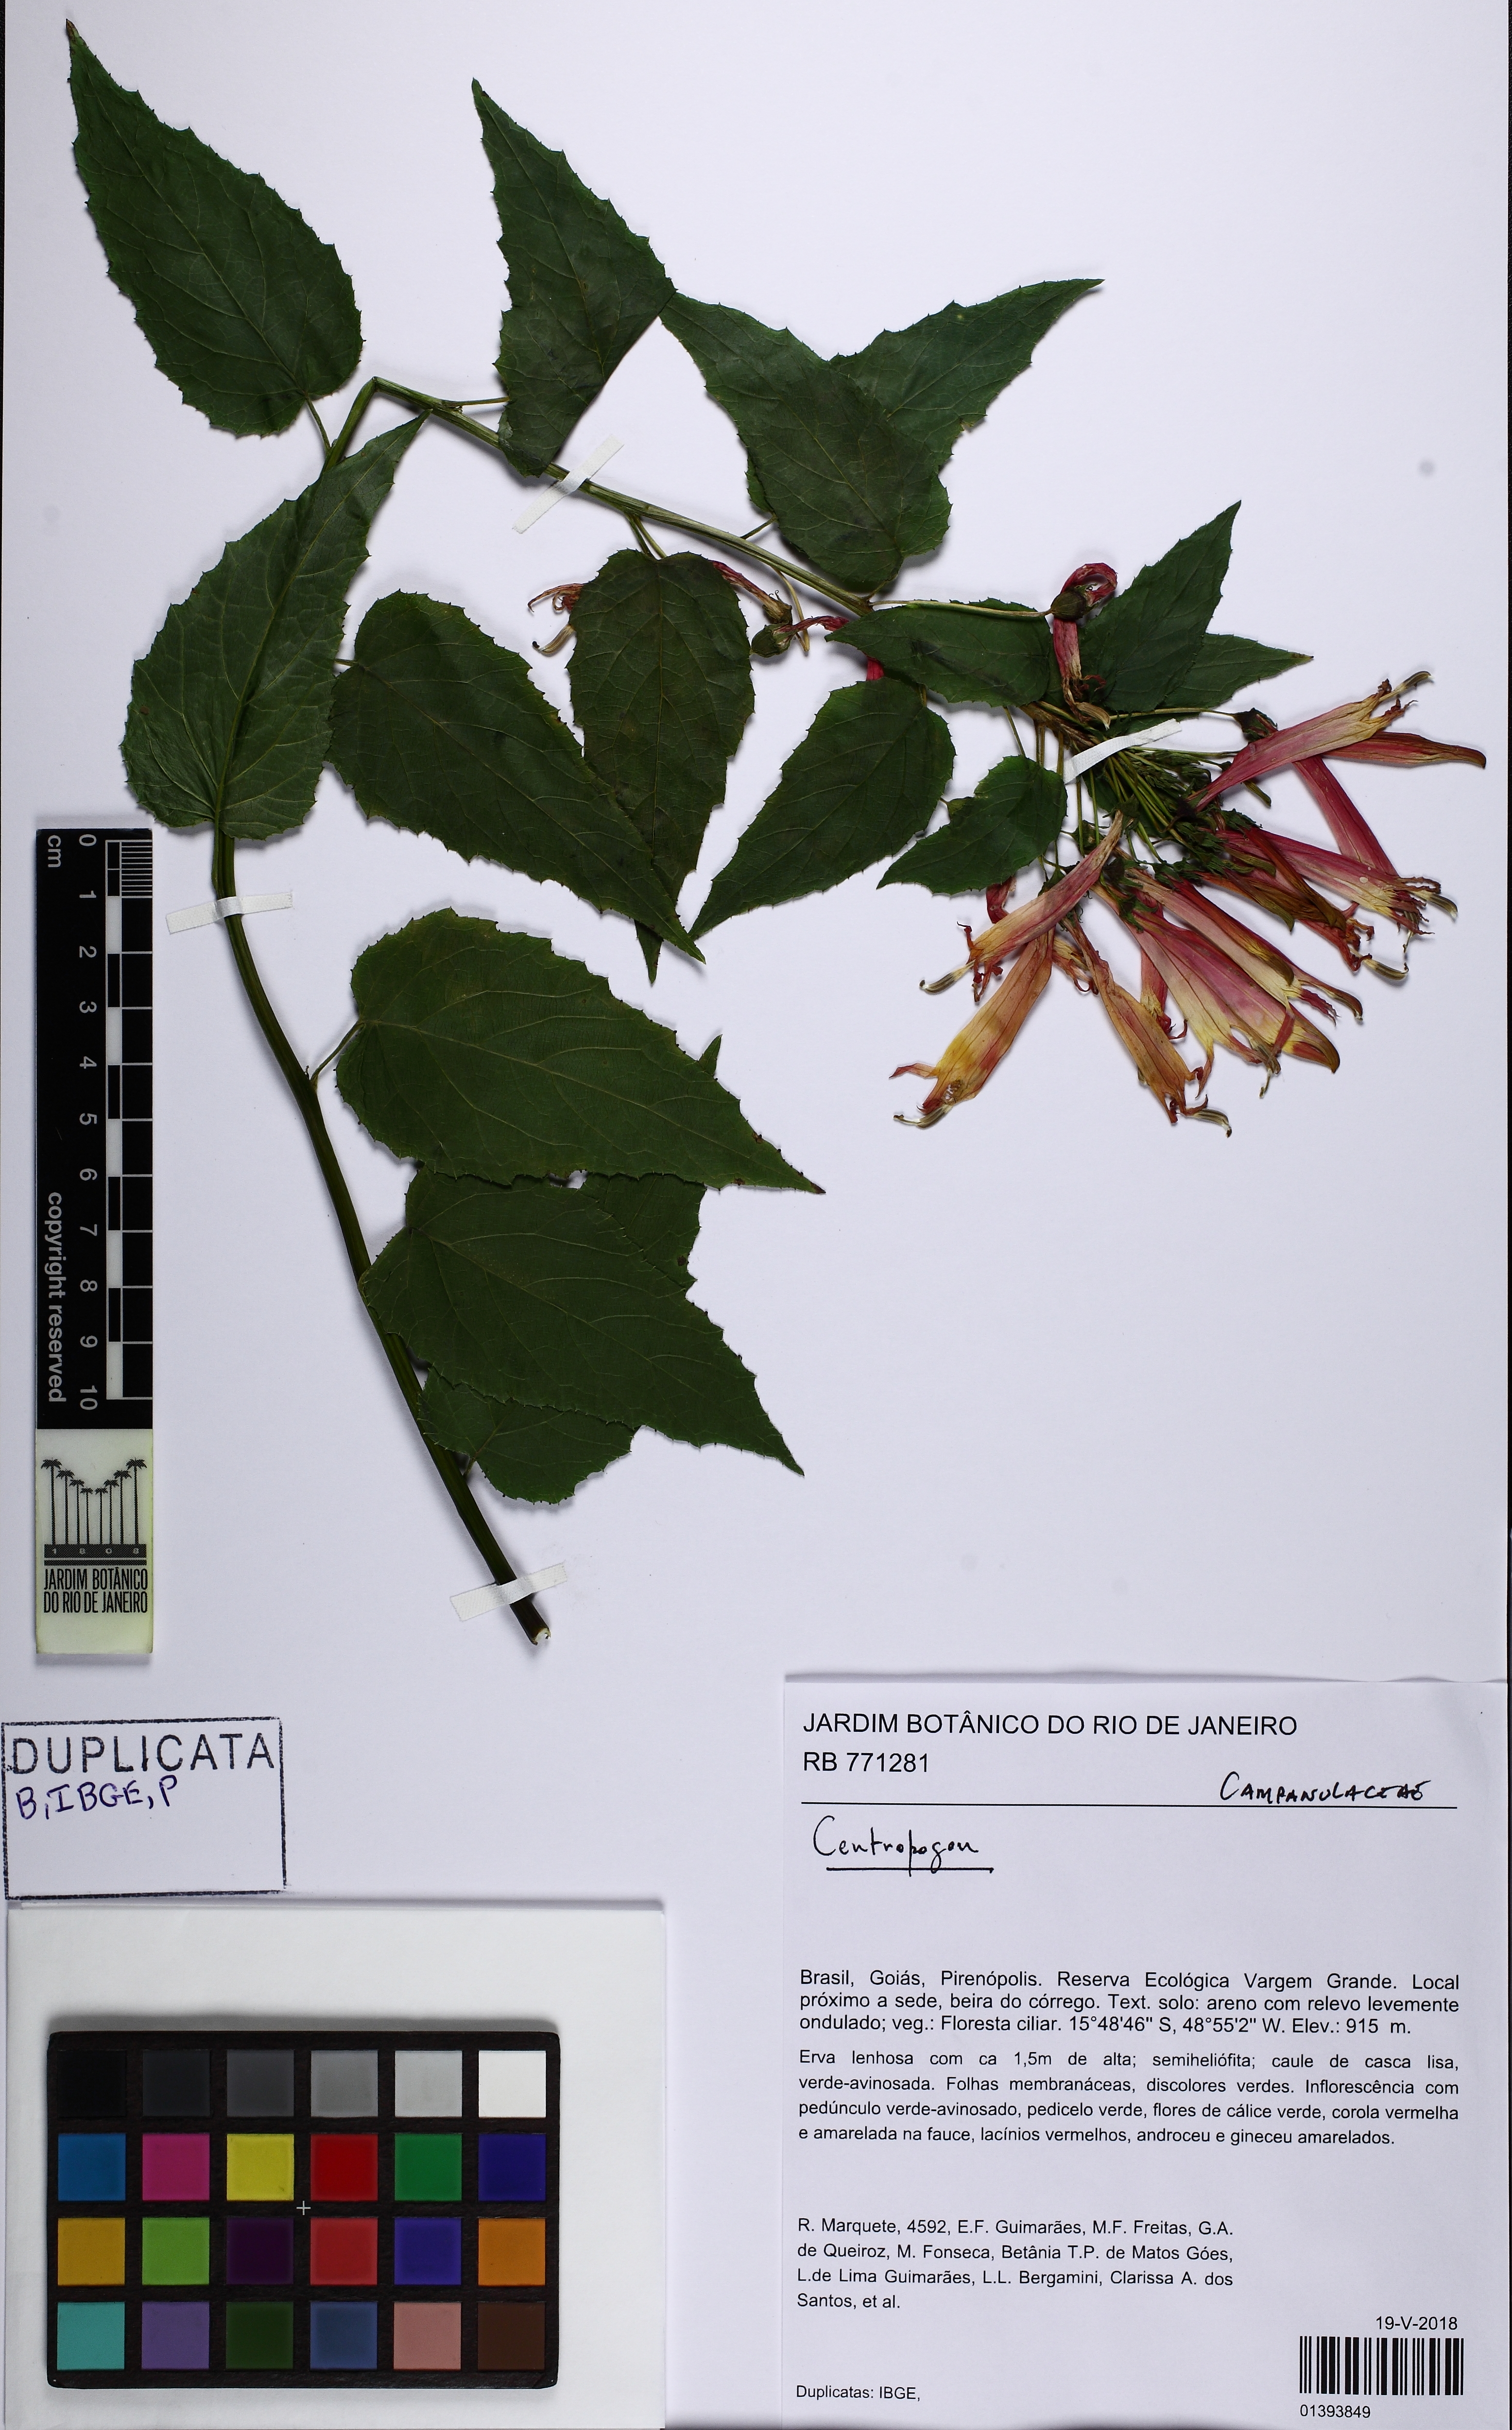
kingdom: Plantae
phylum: Tracheophyta
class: Magnoliopsida
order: Asterales
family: Campanulaceae
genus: Siphocampylus
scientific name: Siphocampylus corymbifer
